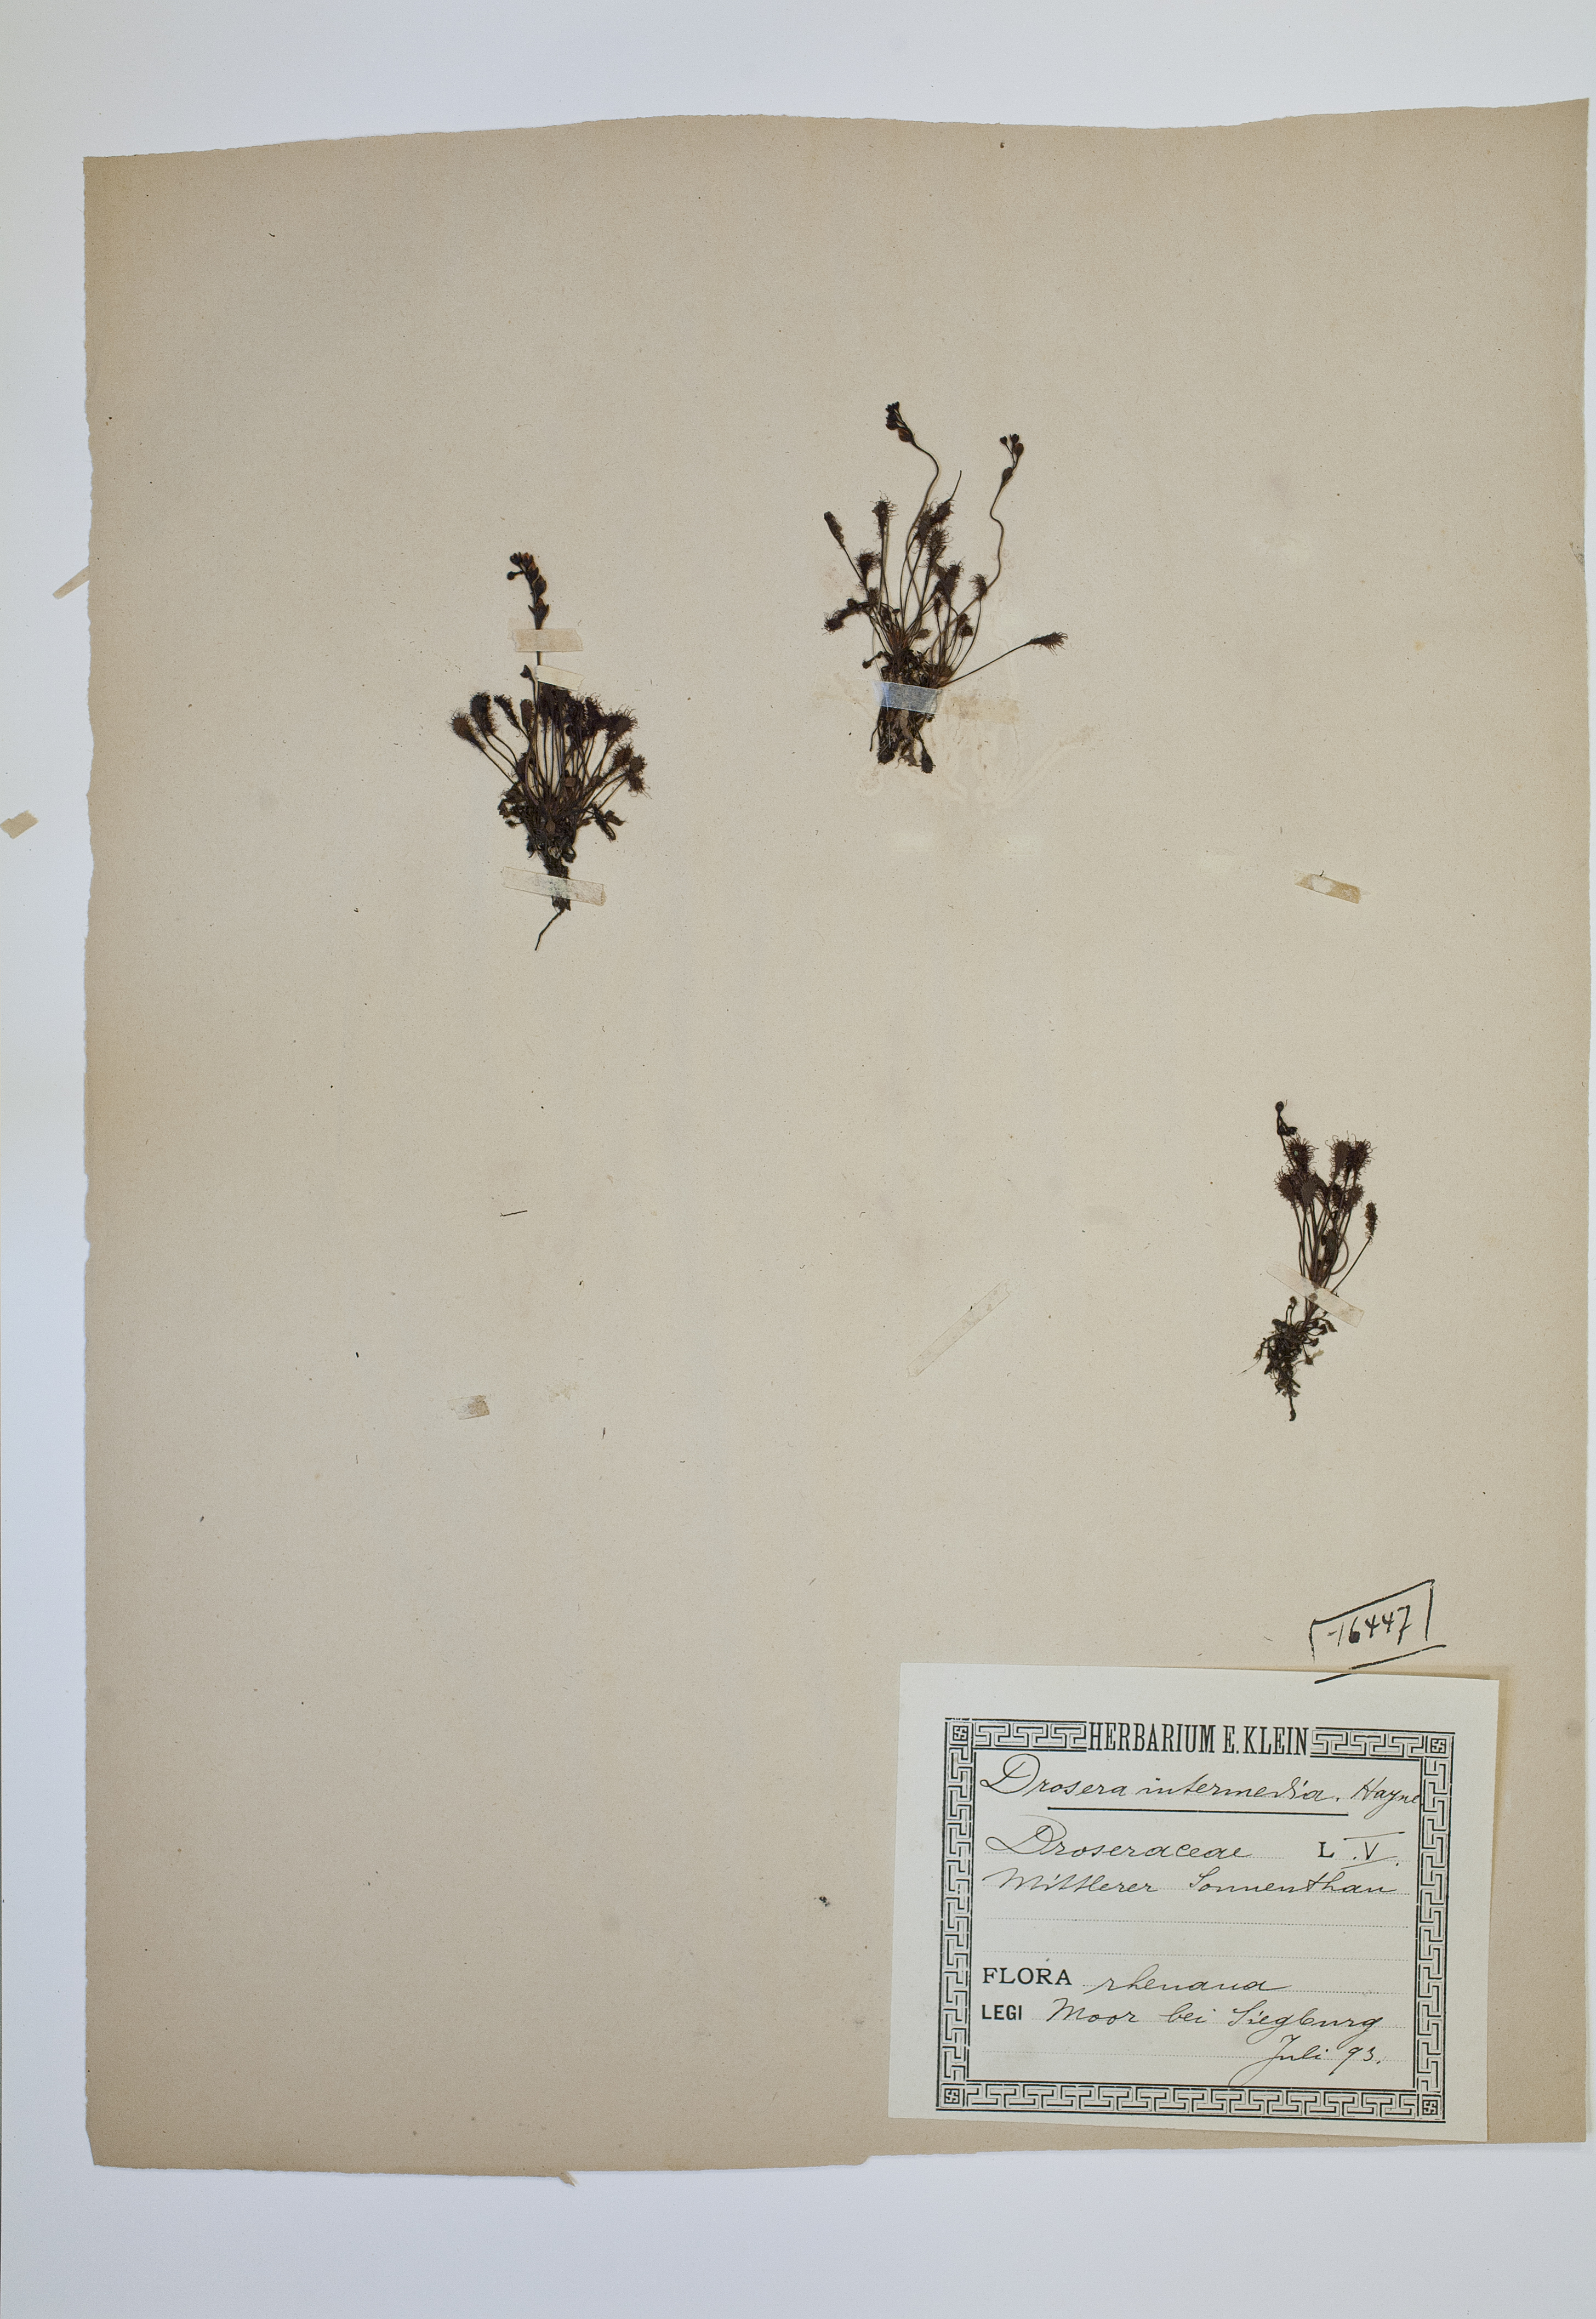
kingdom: Plantae
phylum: Tracheophyta
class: Magnoliopsida
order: Caryophyllales
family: Droseraceae
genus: Drosera
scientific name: Drosera intermedia
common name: Oblong-leaved sundew
